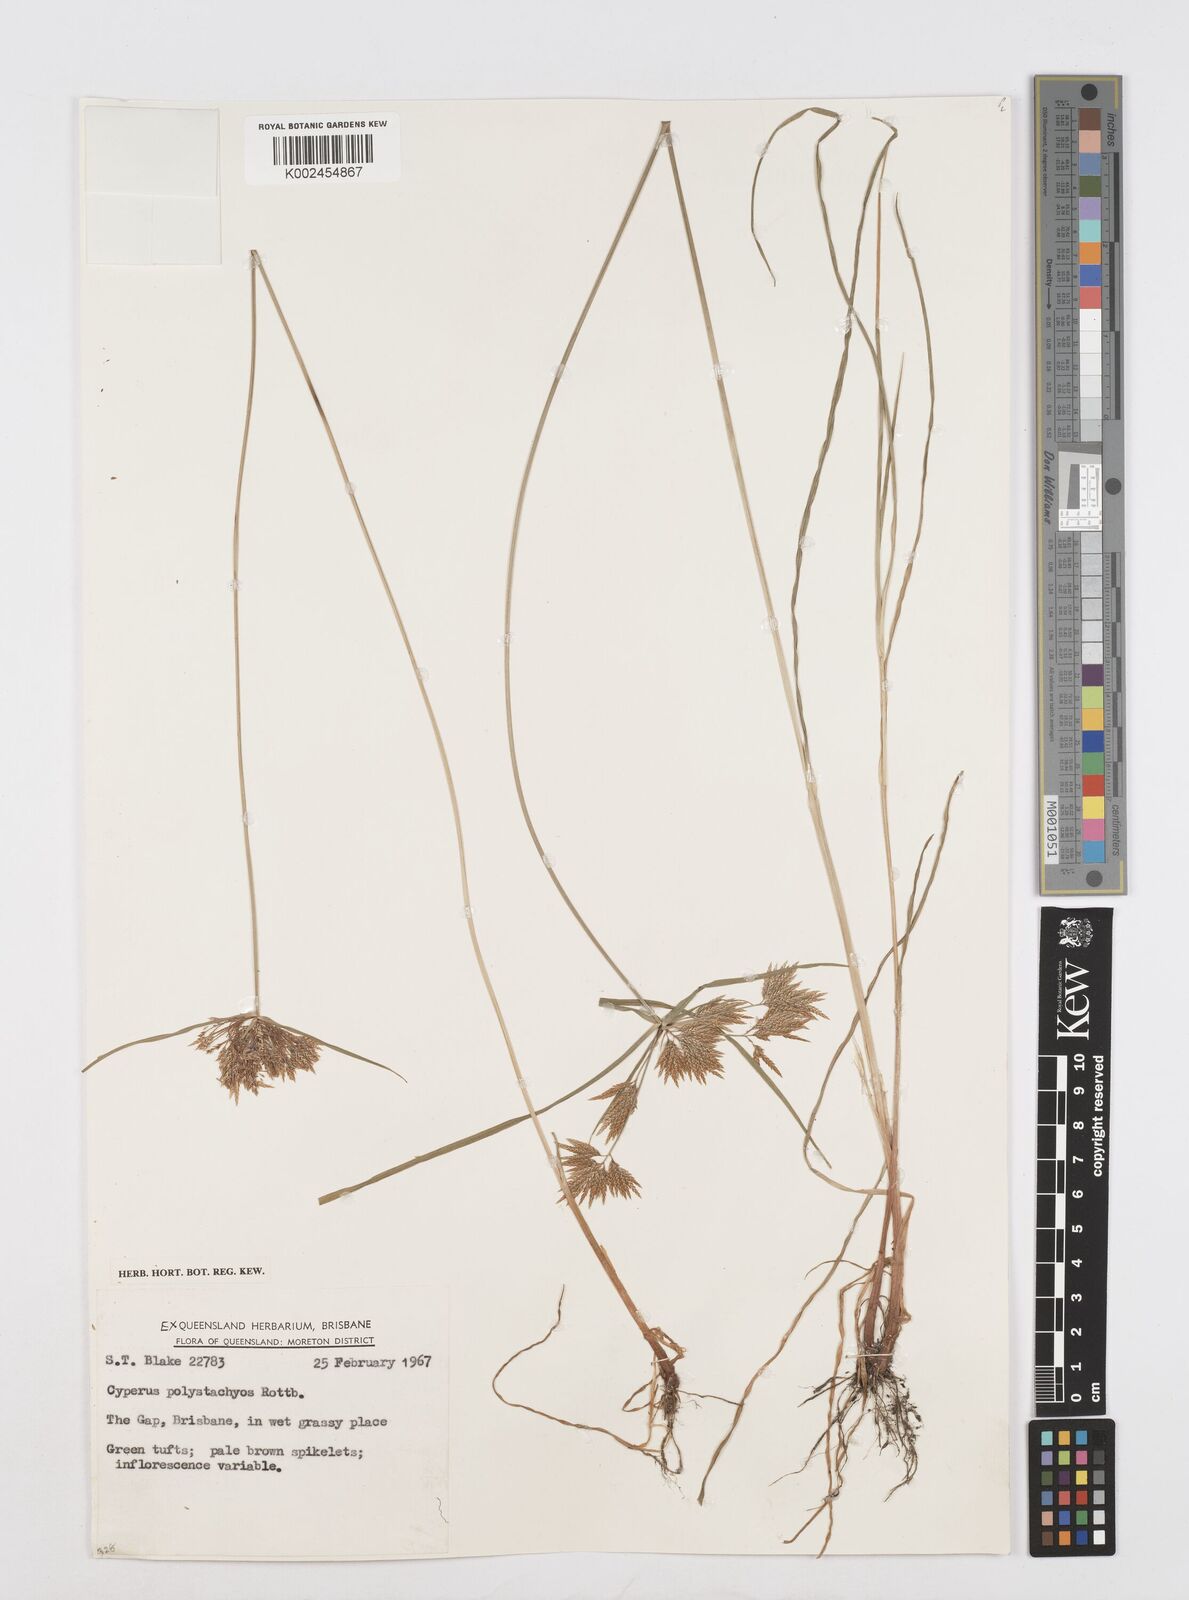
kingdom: Plantae
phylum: Tracheophyta
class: Liliopsida
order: Poales
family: Cyperaceae
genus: Cyperus
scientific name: Cyperus polystachyos
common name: Bunchy flat sedge
